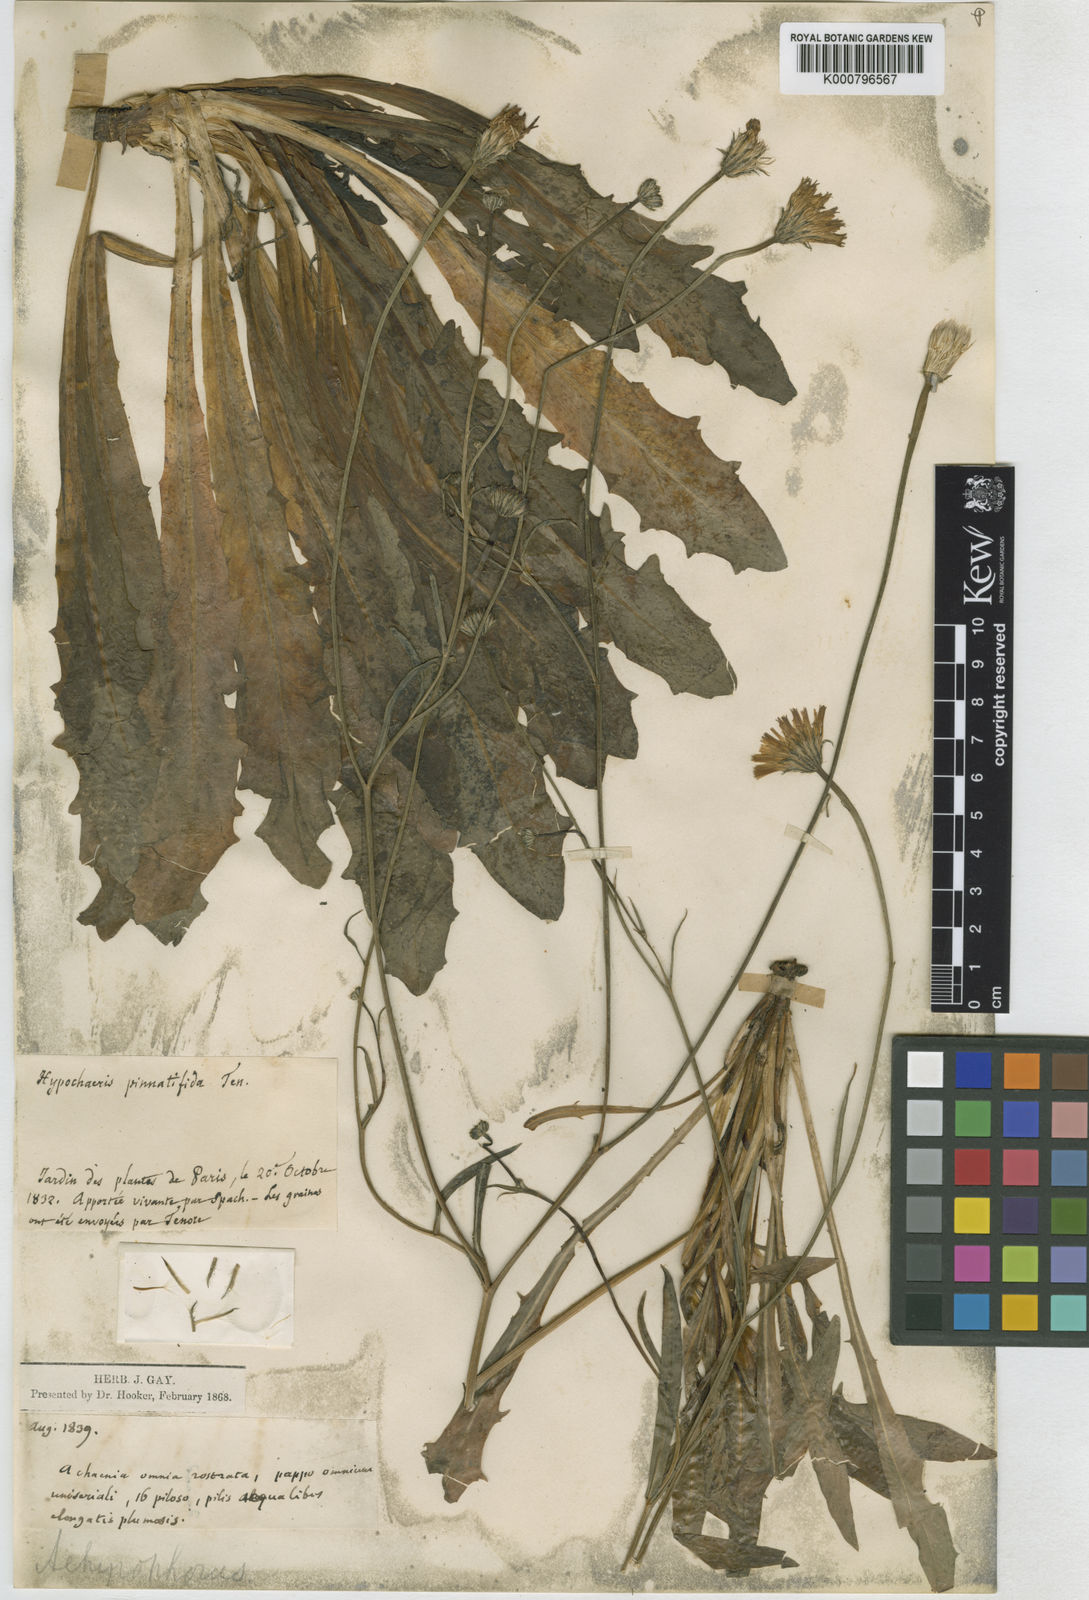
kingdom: Plantae
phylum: Tracheophyta
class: Magnoliopsida
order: Asterales
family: Asteraceae
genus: Hypochaeris
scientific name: Hypochaeris cretensis
